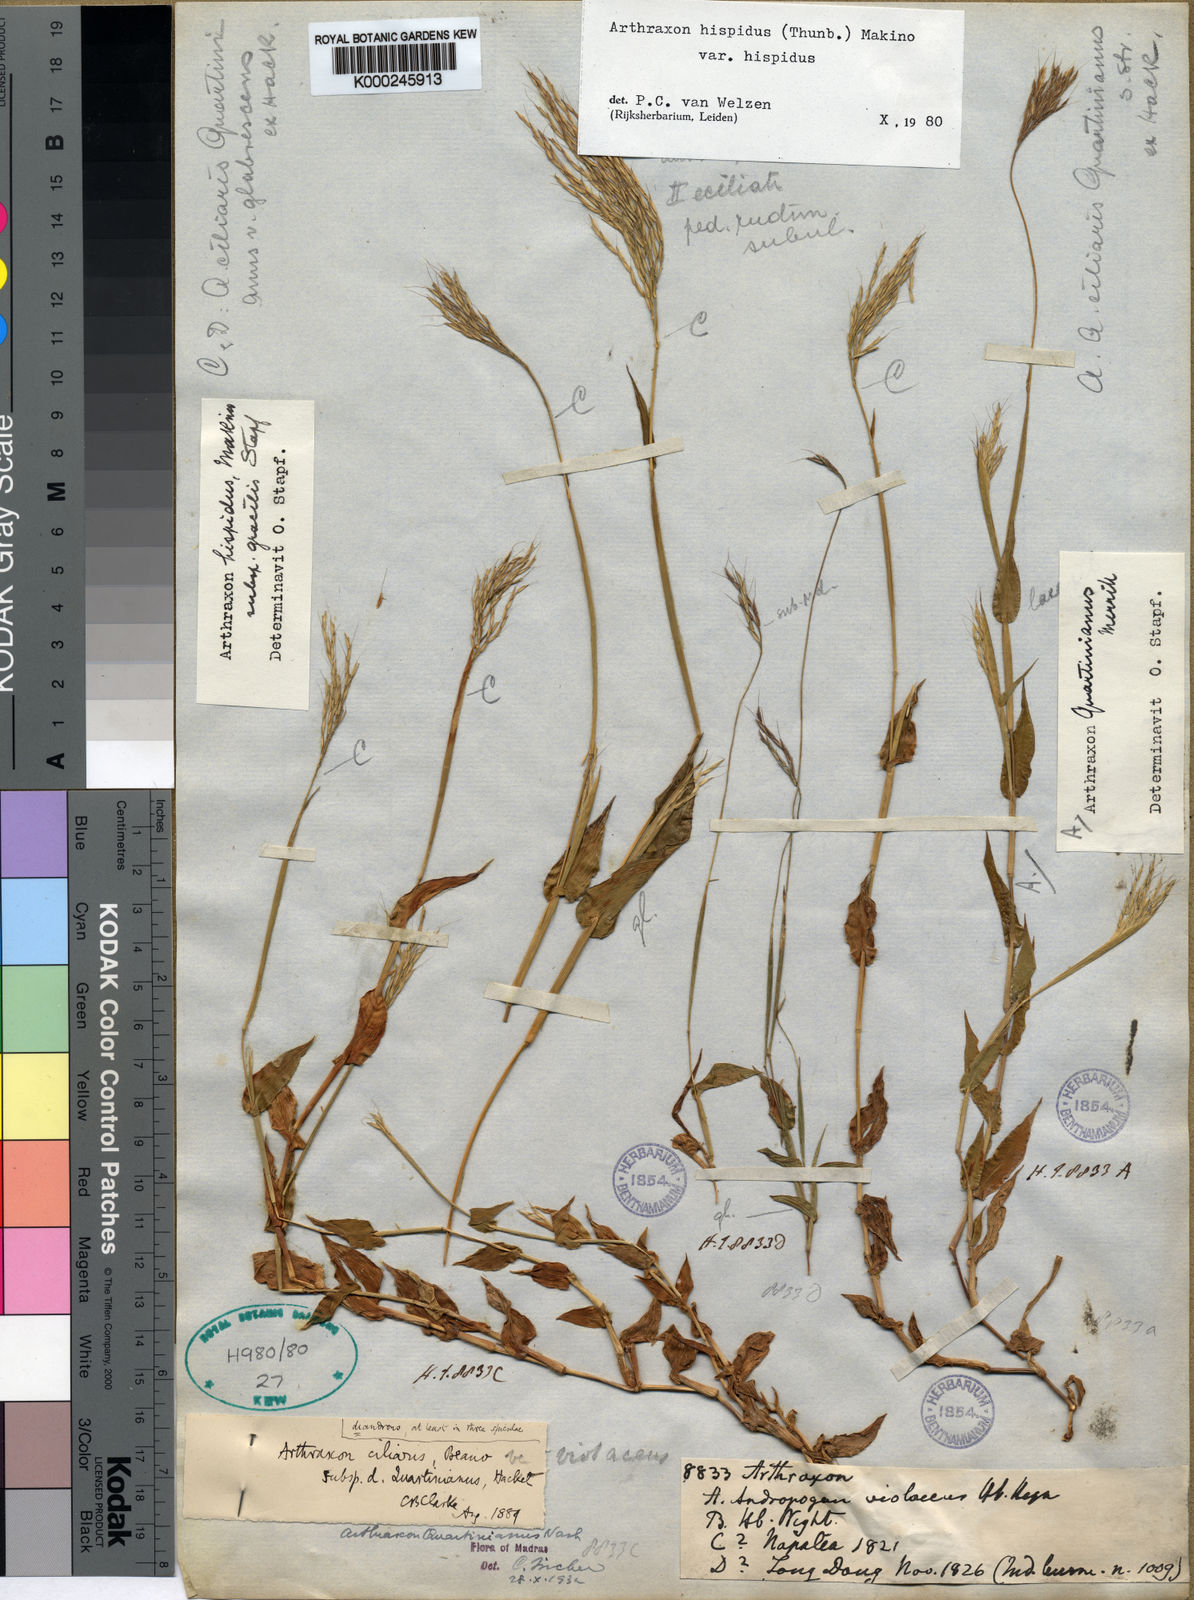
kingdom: Plantae
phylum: Tracheophyta
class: Liliopsida
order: Poales
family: Poaceae
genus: Arthraxon
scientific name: Arthraxon hispidus
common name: Small carpgrass
